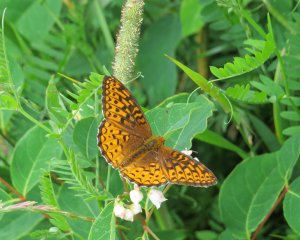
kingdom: Animalia
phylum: Arthropoda
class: Insecta
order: Lepidoptera
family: Nymphalidae
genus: Speyeria
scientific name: Speyeria atlantis
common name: Atlantis Fritillary
